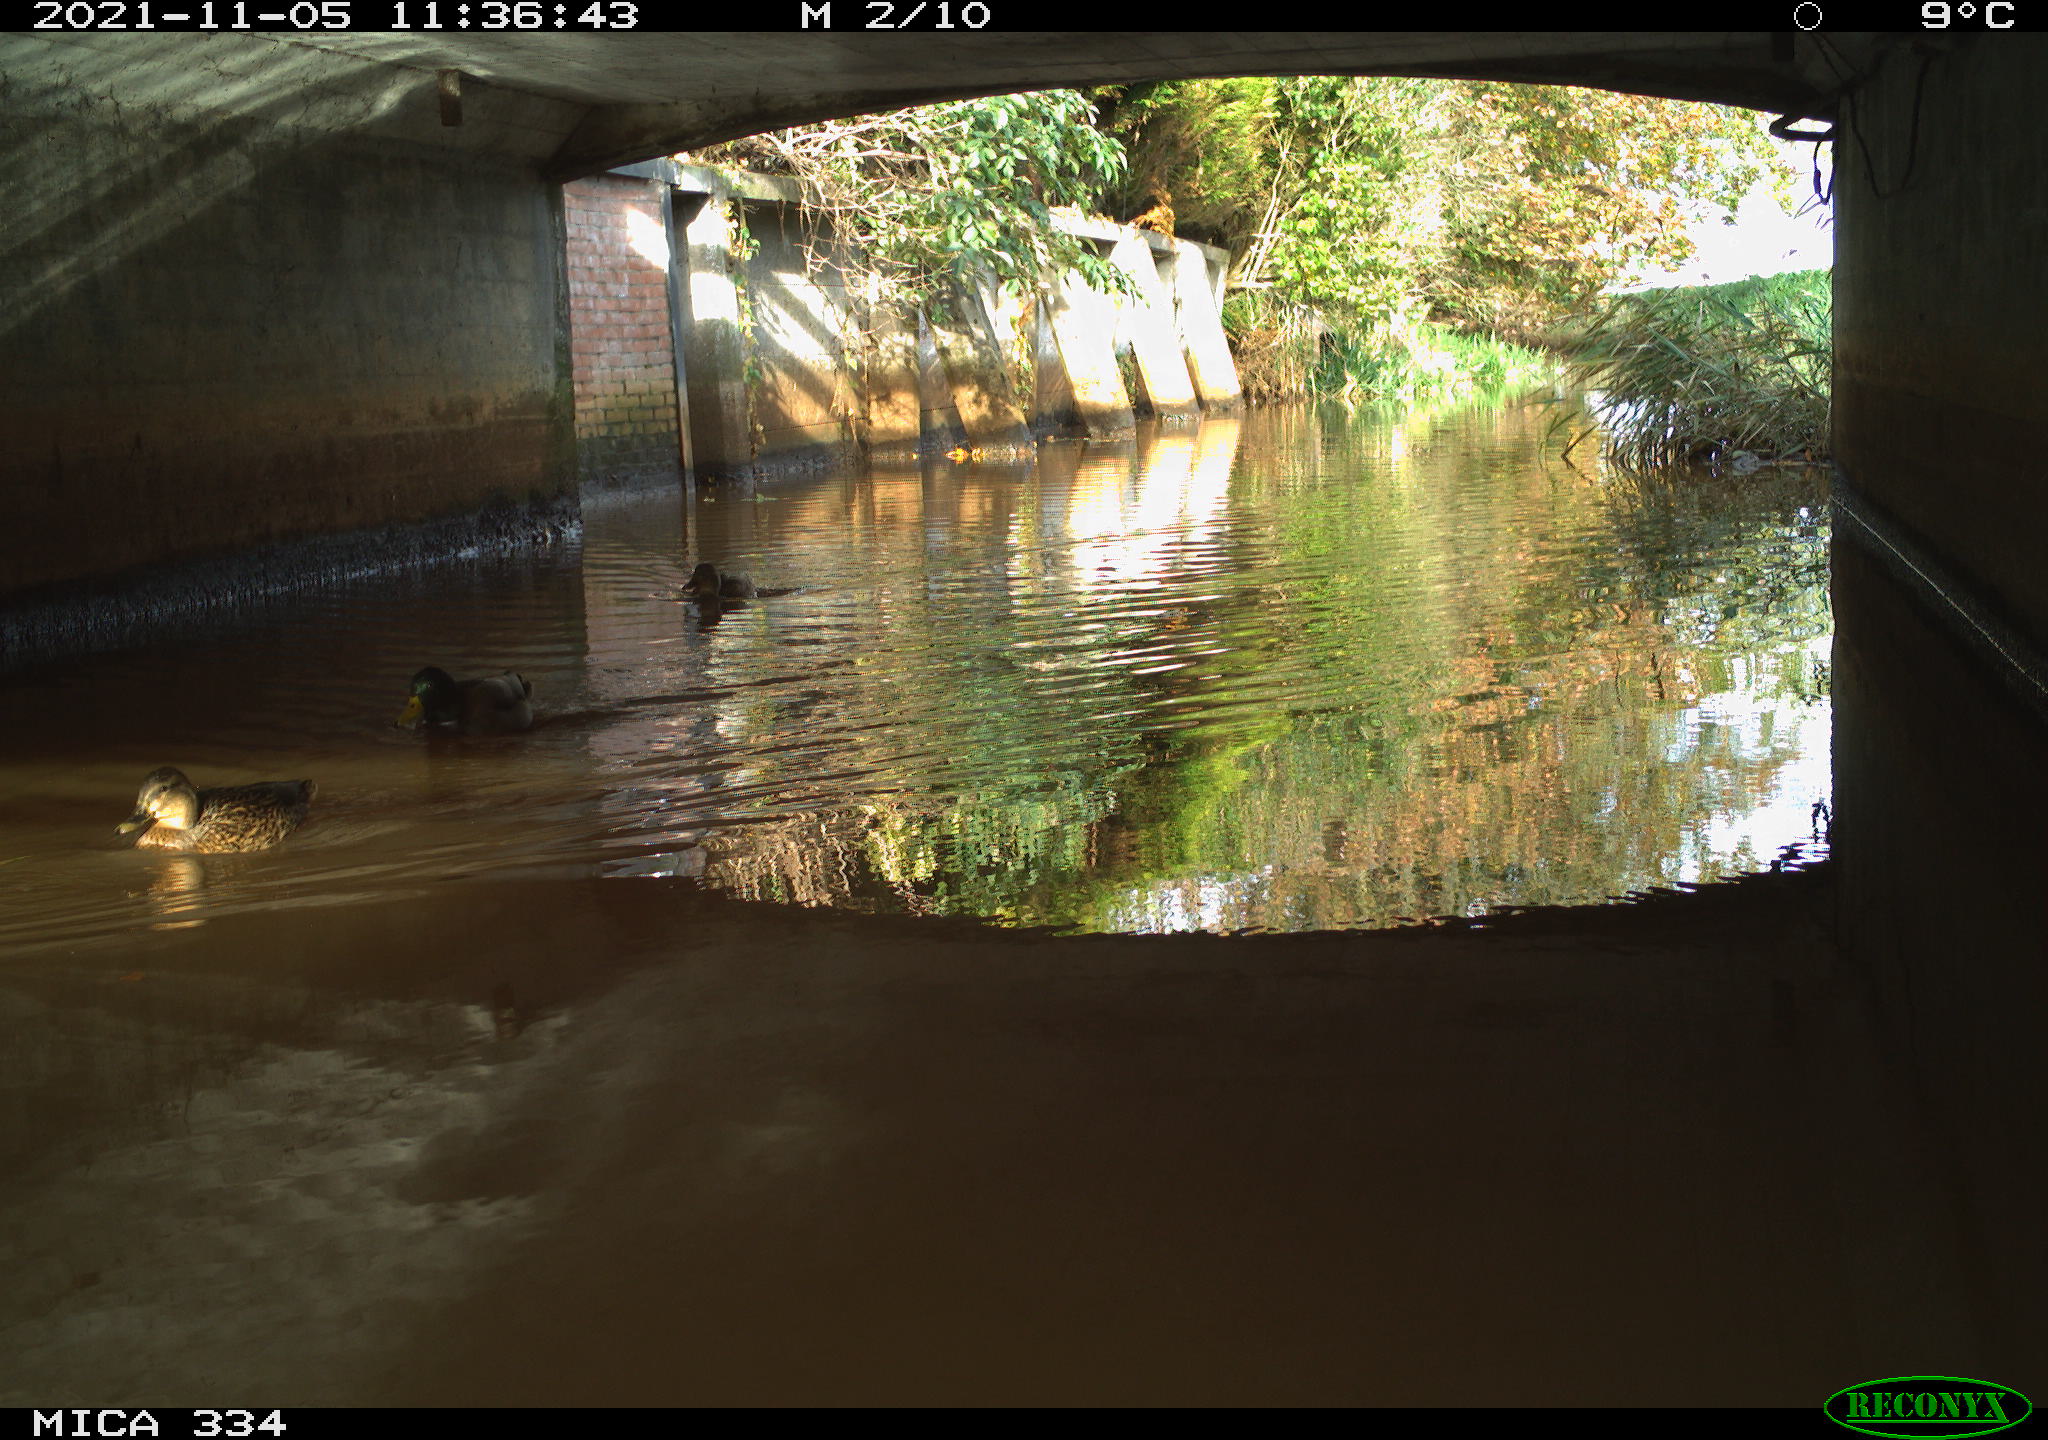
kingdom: Animalia
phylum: Chordata
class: Aves
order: Anseriformes
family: Anatidae
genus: Anas
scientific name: Anas platyrhynchos
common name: Mallard
